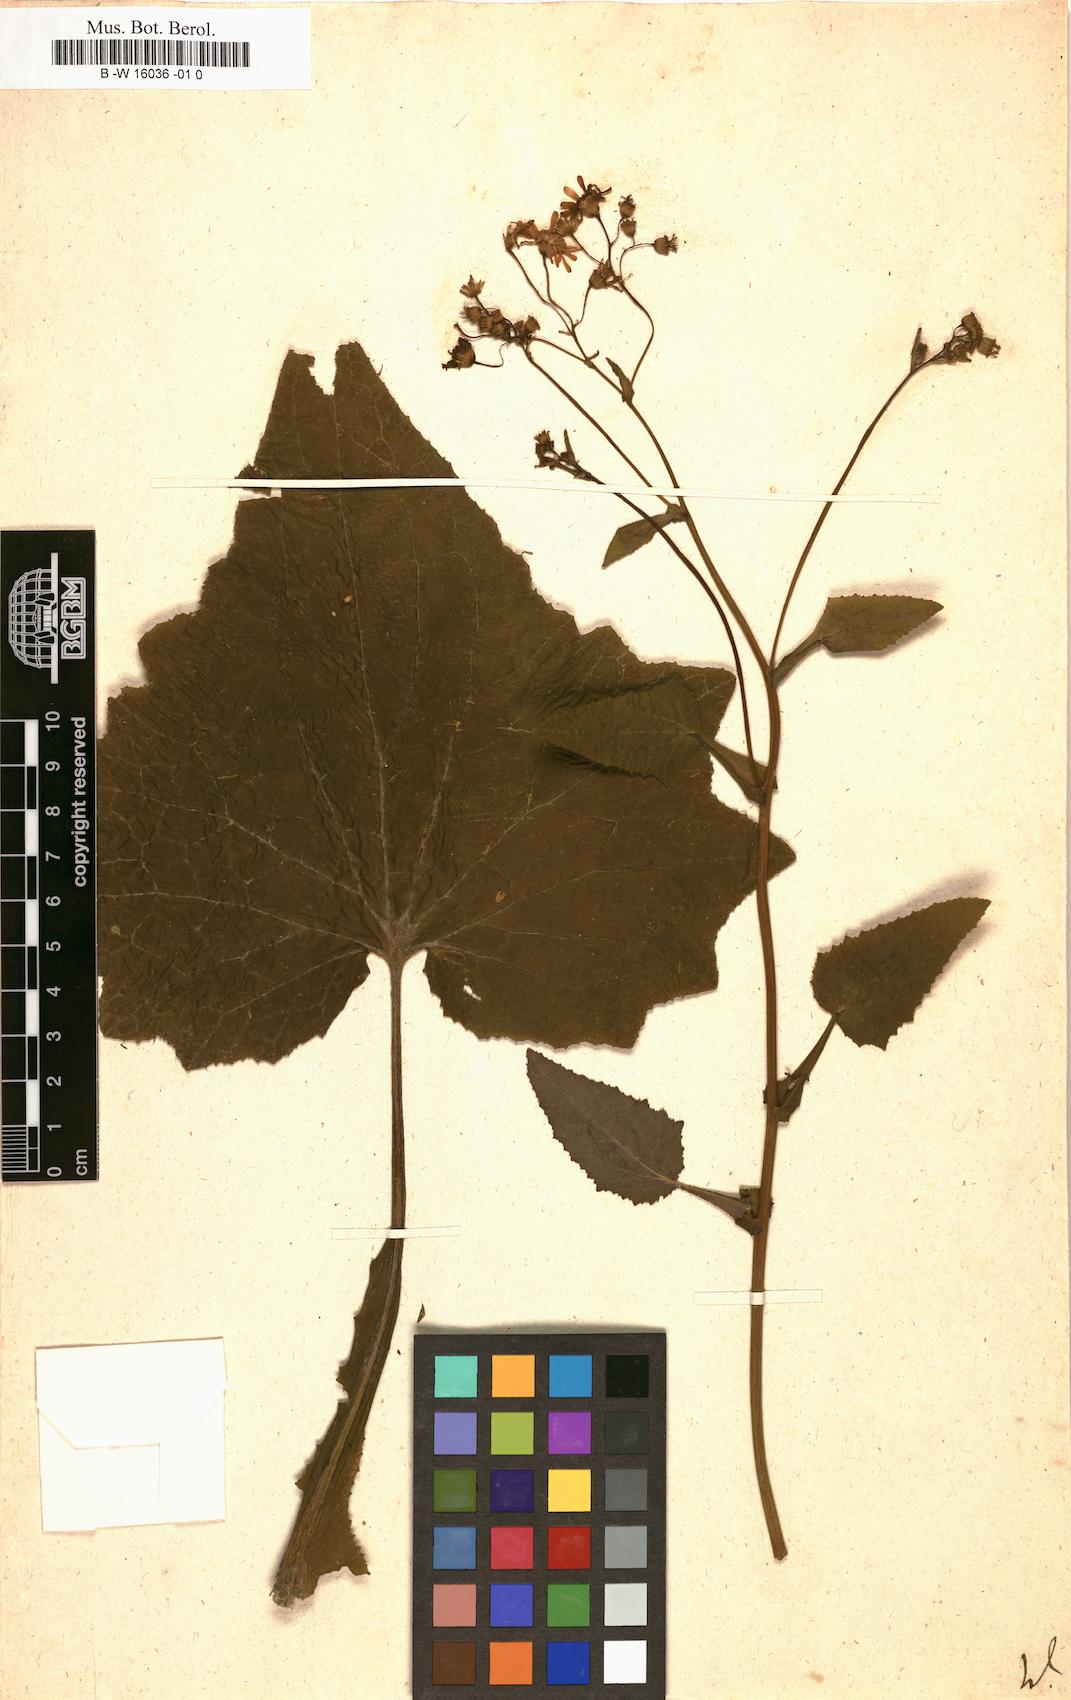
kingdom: Plantae
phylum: Tracheophyta
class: Magnoliopsida
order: Asterales
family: Asteraceae
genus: Cineraria
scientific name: Cineraria
